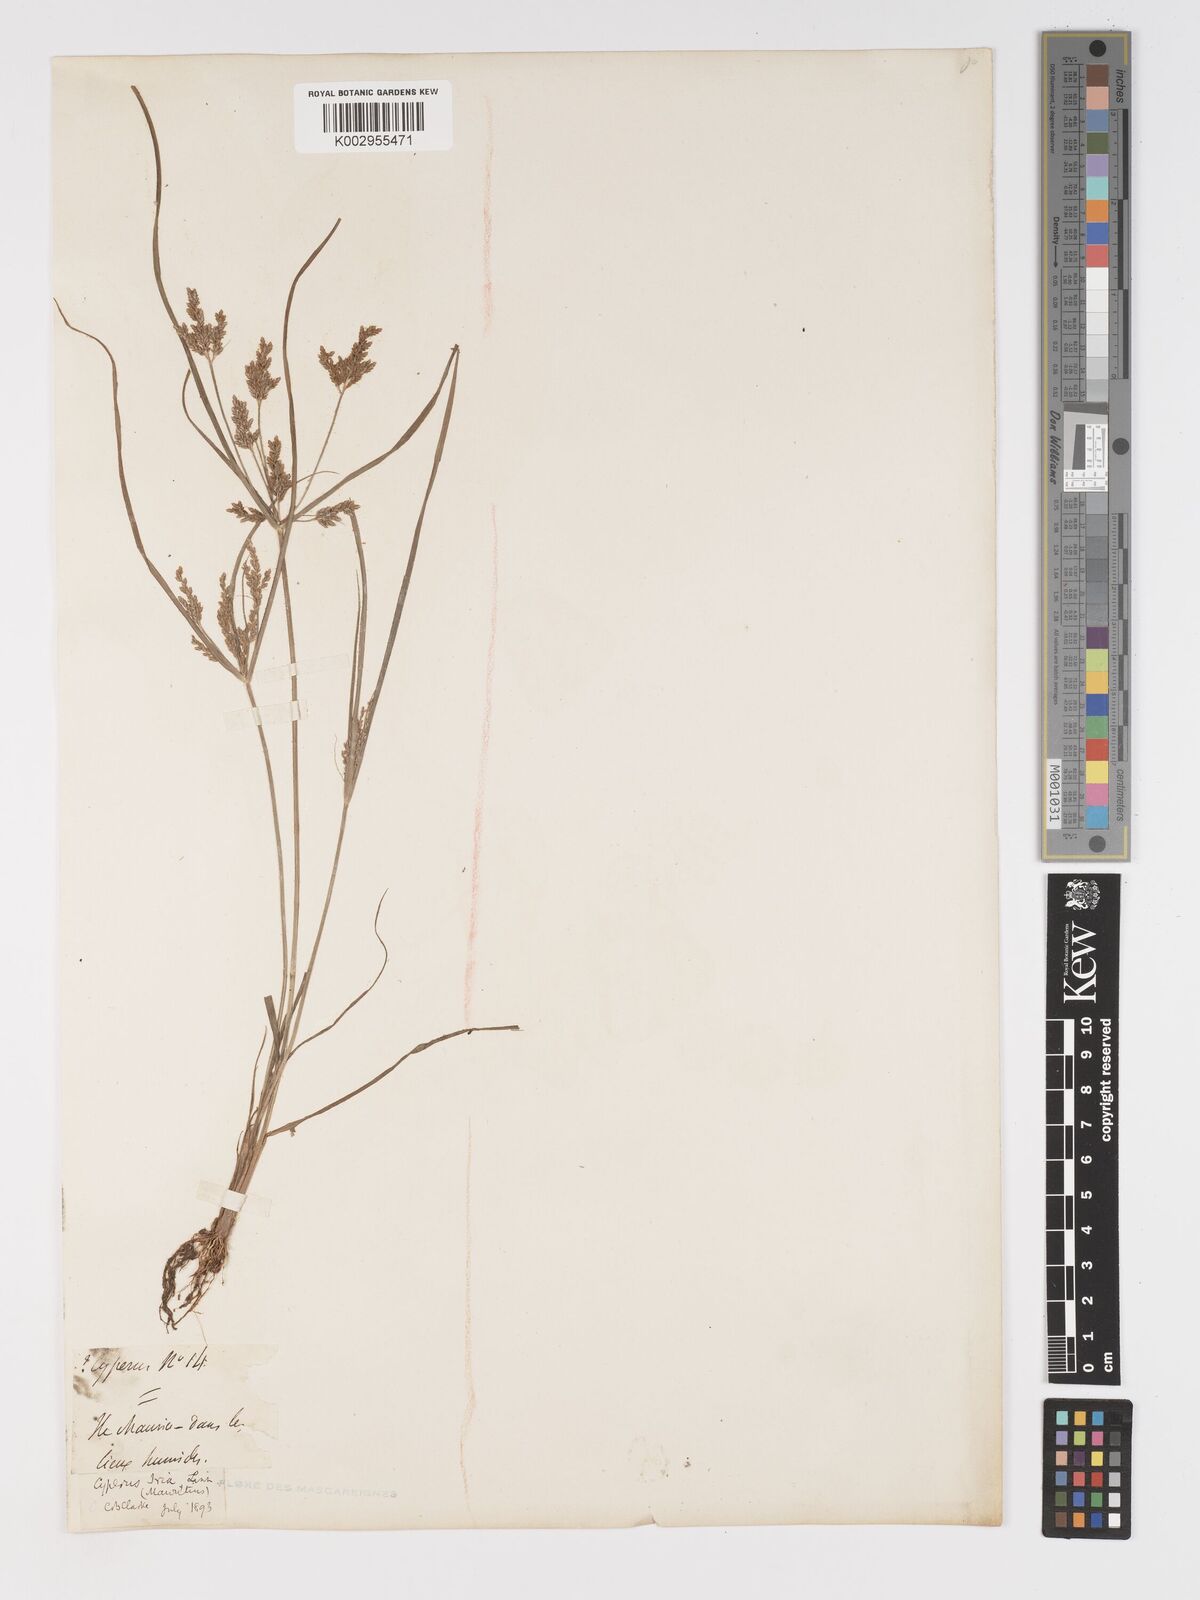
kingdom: Plantae
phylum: Tracheophyta
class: Liliopsida
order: Poales
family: Cyperaceae
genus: Cyperus
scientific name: Cyperus iria
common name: Ricefield flatsedge
